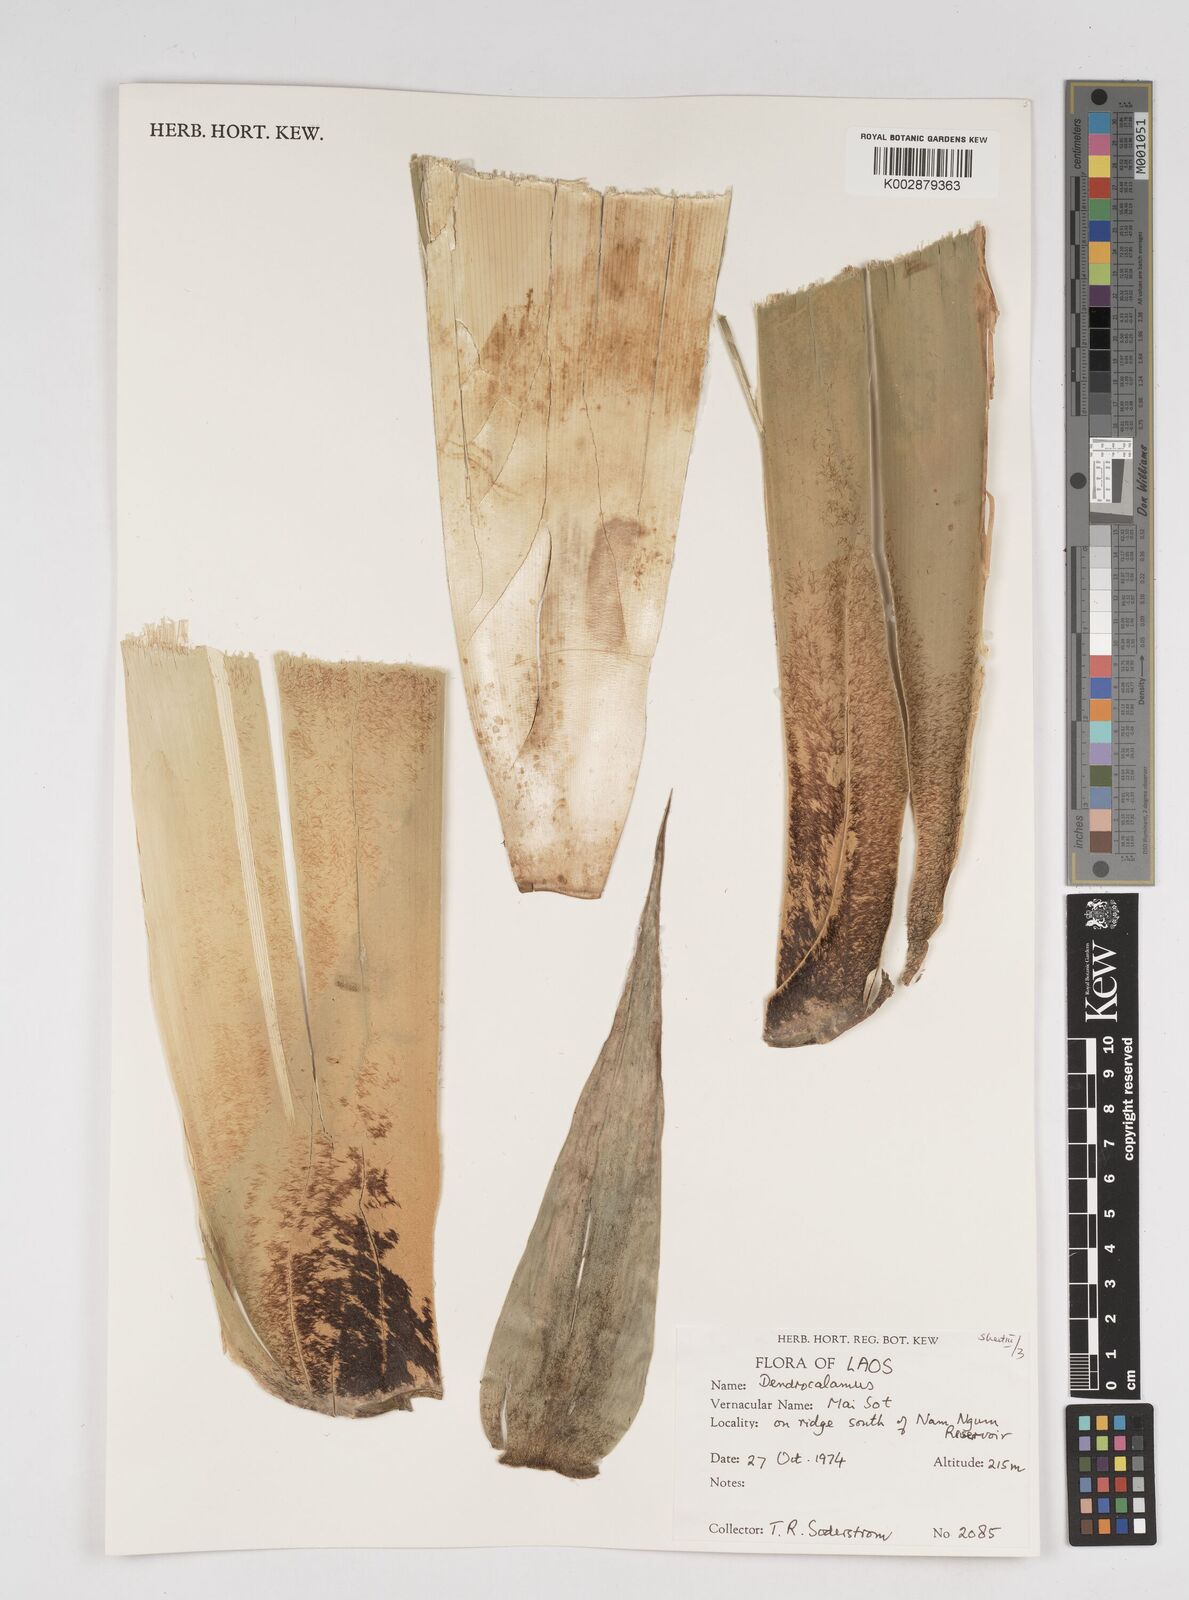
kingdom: Plantae
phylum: Tracheophyta
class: Liliopsida
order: Poales
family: Poaceae
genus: Dendrocalamus
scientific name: Dendrocalamus
